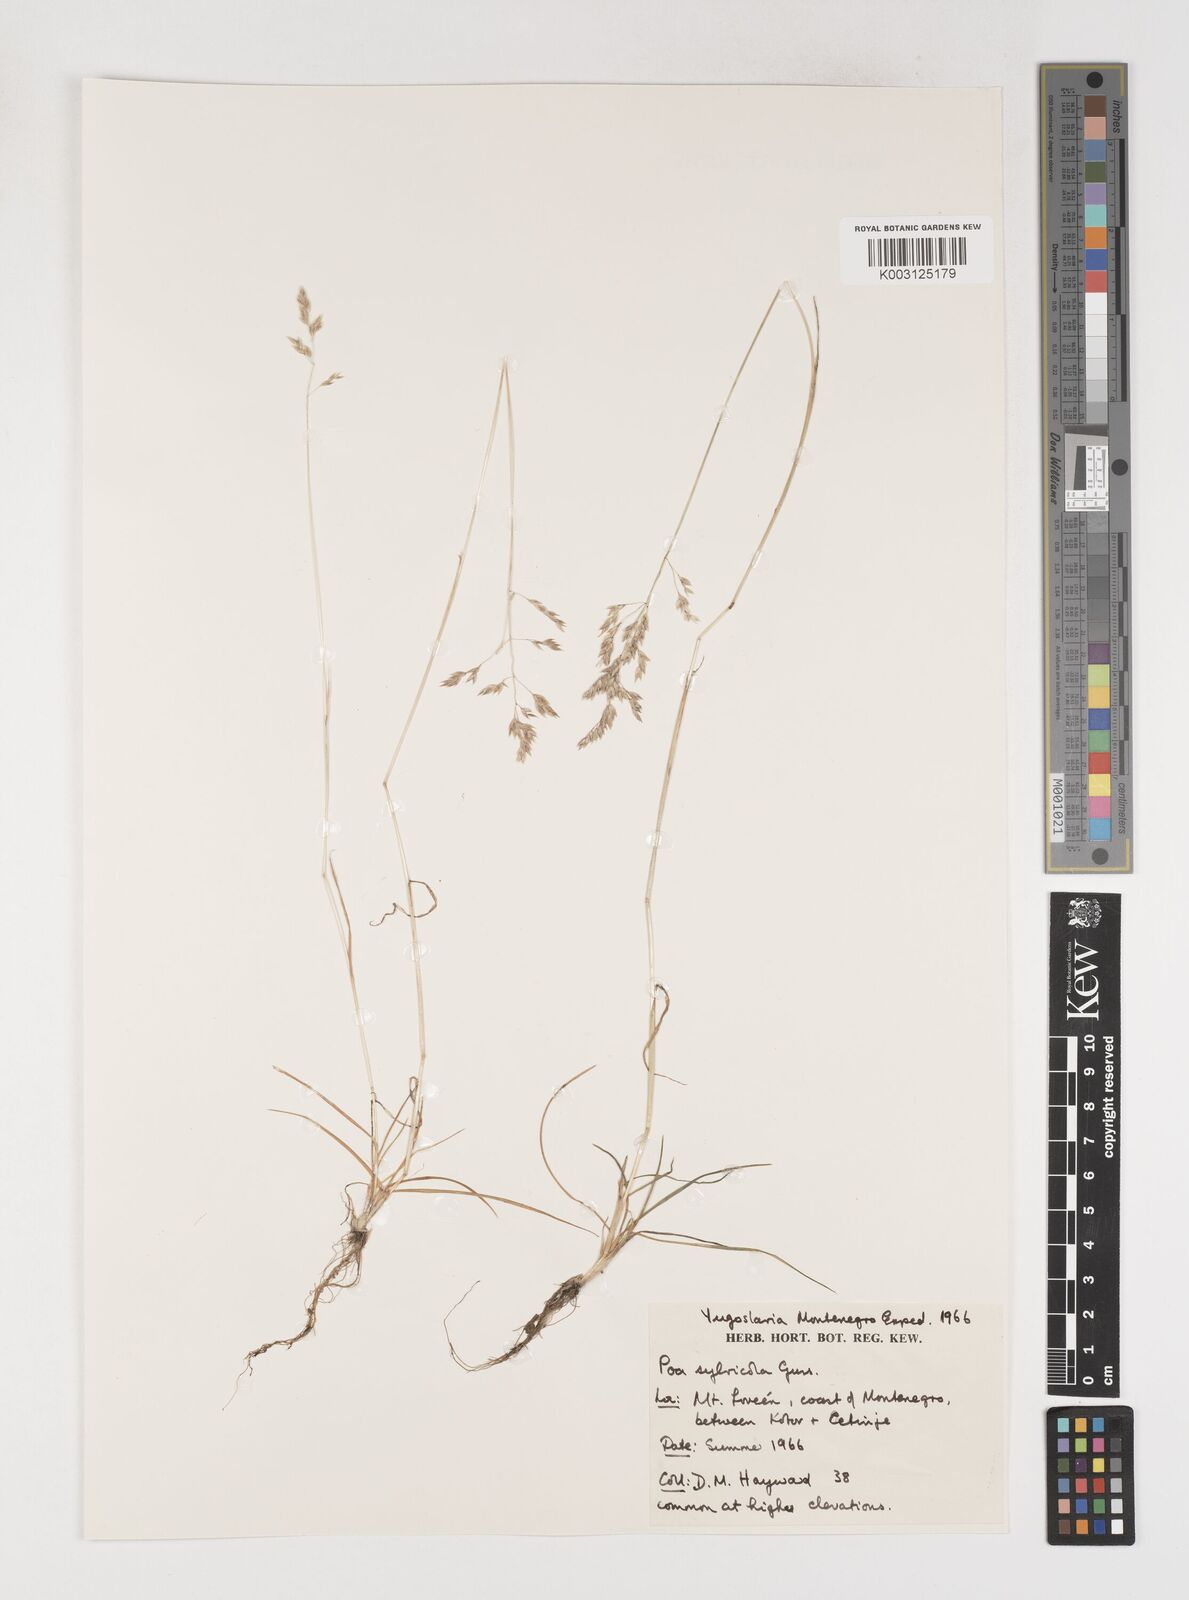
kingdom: Plantae
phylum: Tracheophyta
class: Liliopsida
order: Poales
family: Poaceae
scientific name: Poaceae
